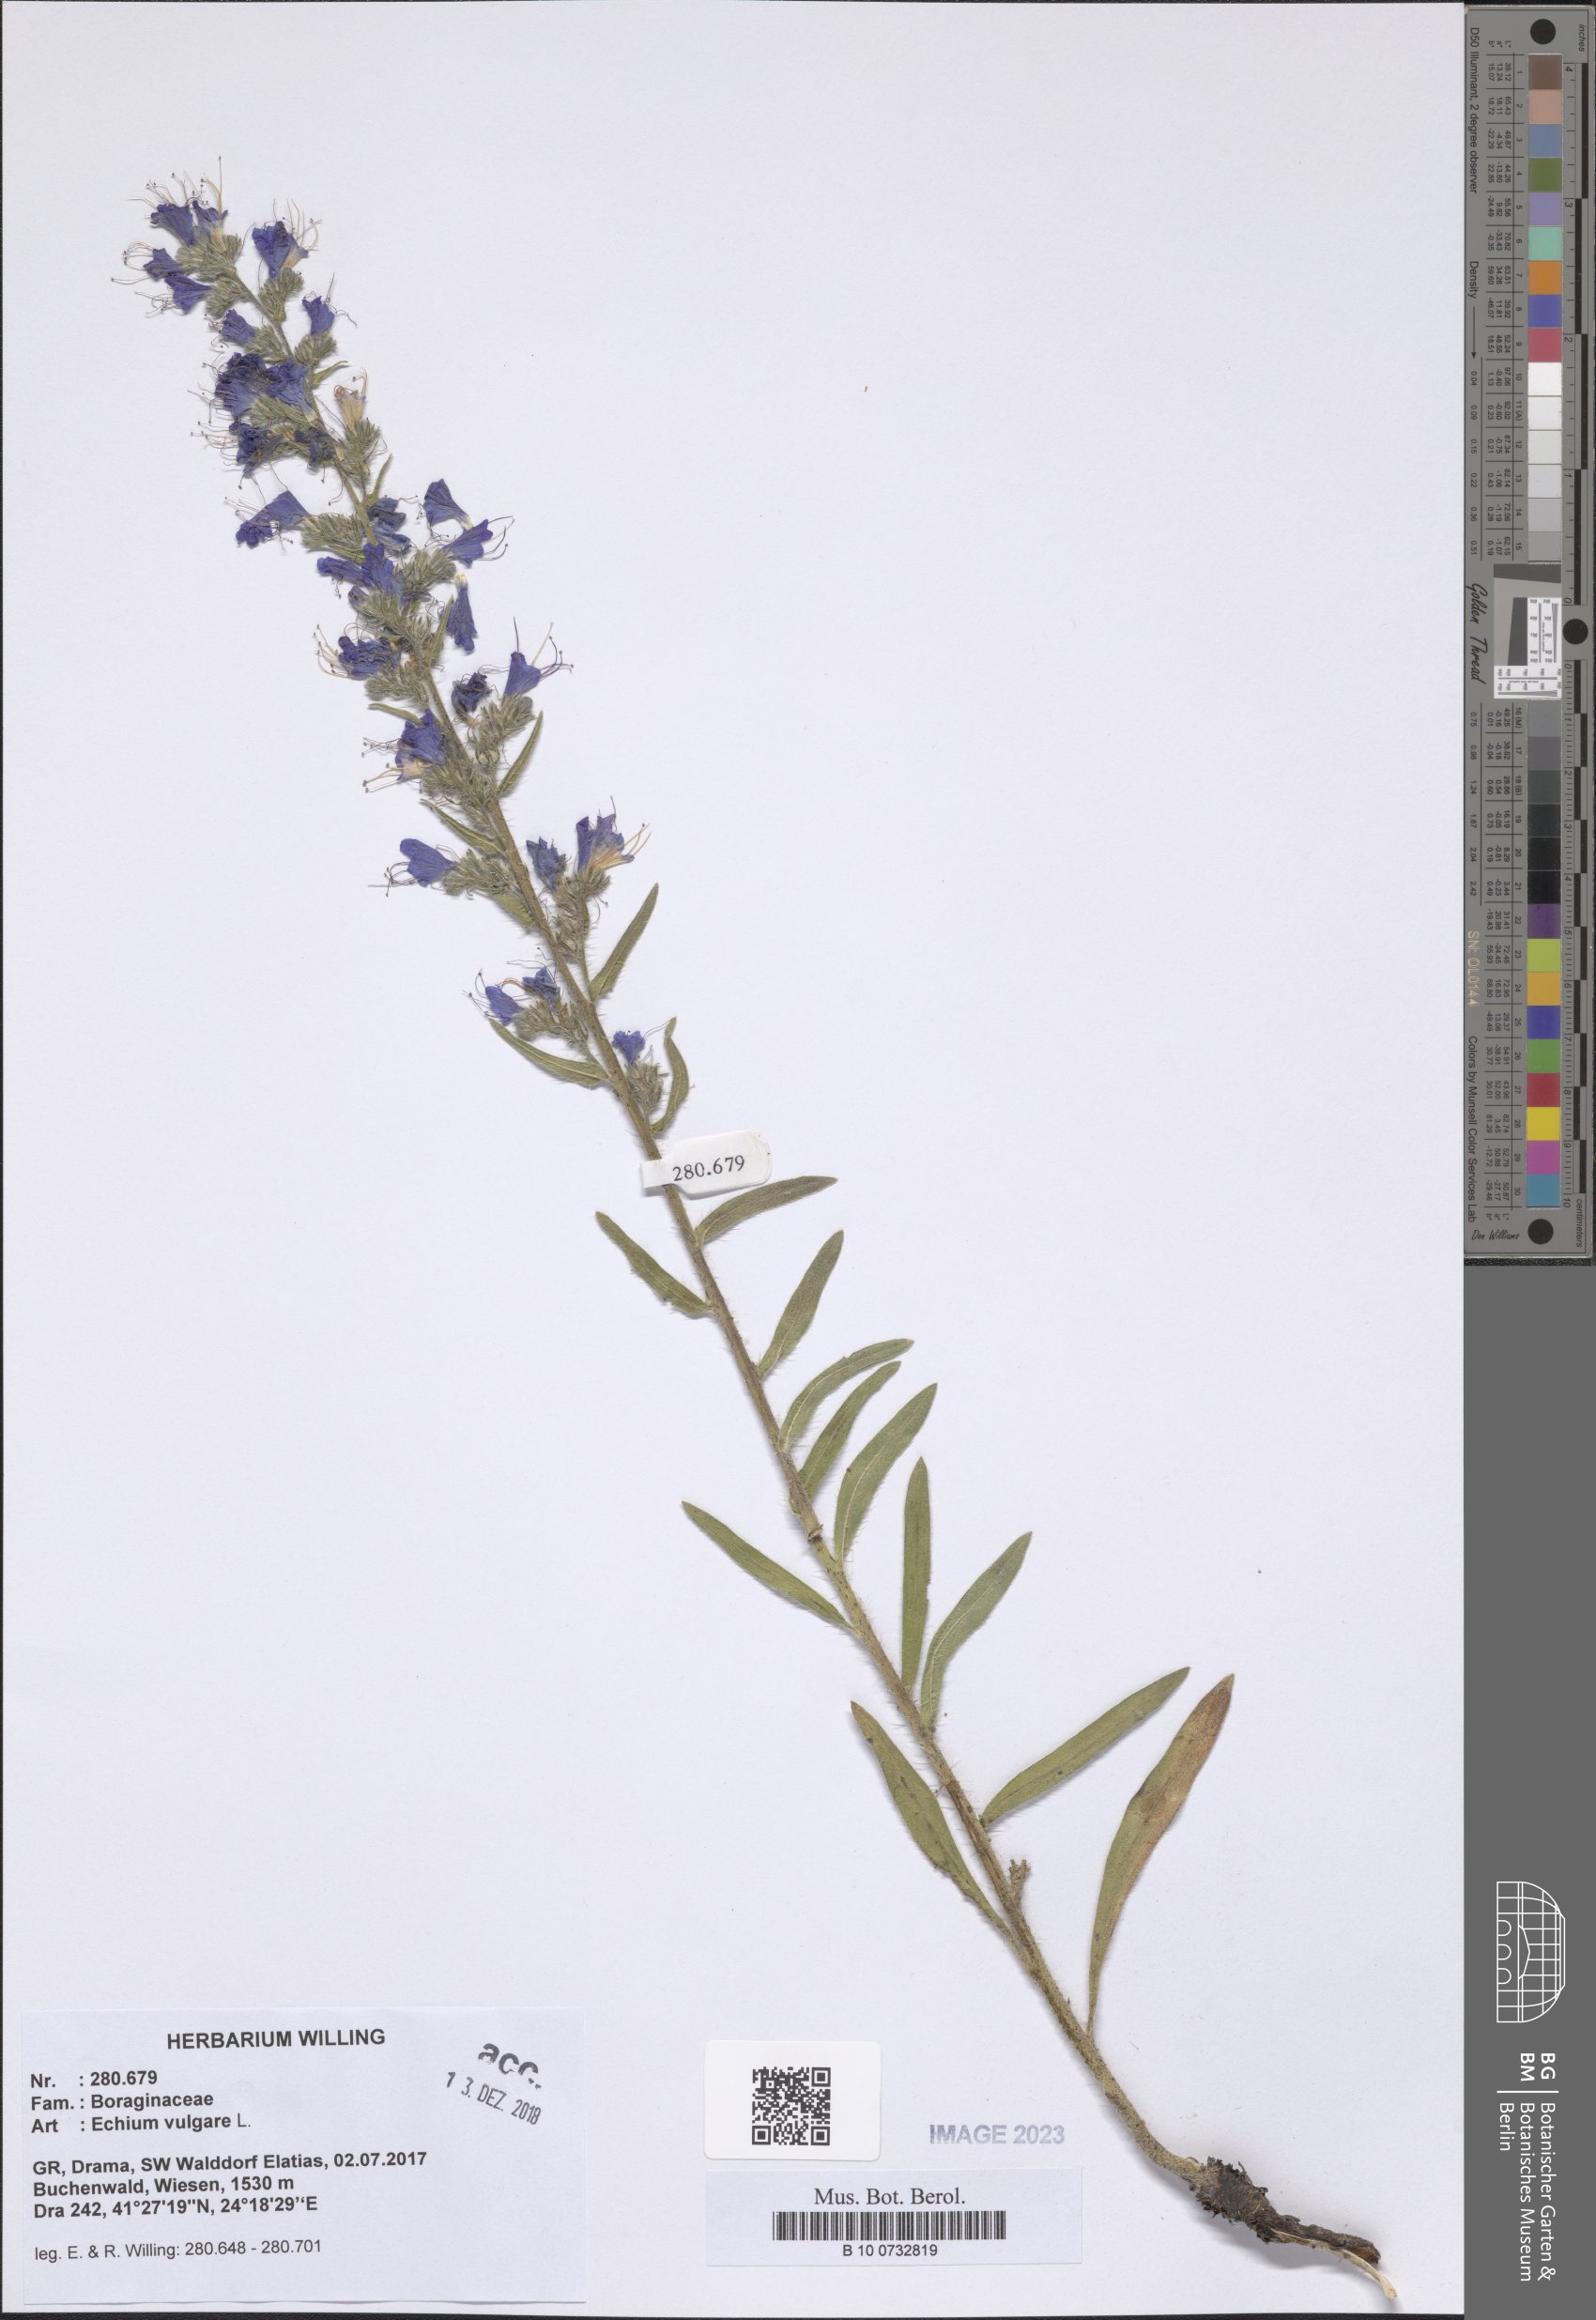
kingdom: Plantae
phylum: Tracheophyta
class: Magnoliopsida
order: Boraginales
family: Boraginaceae
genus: Echium
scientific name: Echium vulgare
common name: Common viper's bugloss
